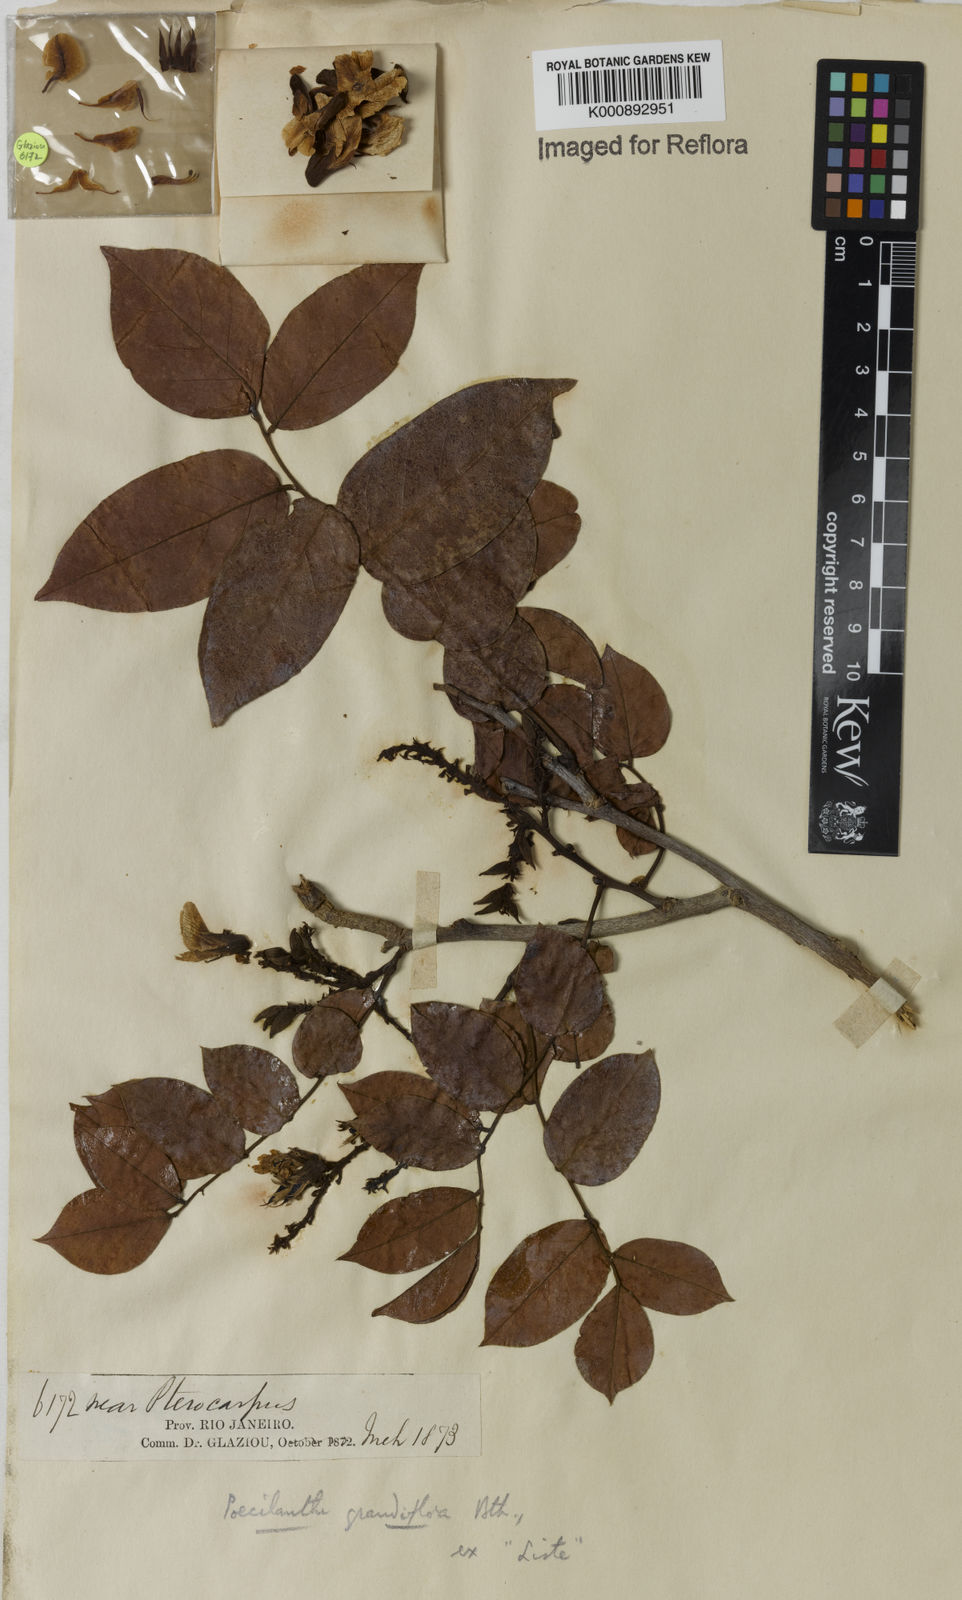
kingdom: Plantae
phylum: Tracheophyta
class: Magnoliopsida
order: Fabales
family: Fabaceae
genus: Poecilanthe
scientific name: Poecilanthe grandiflora
